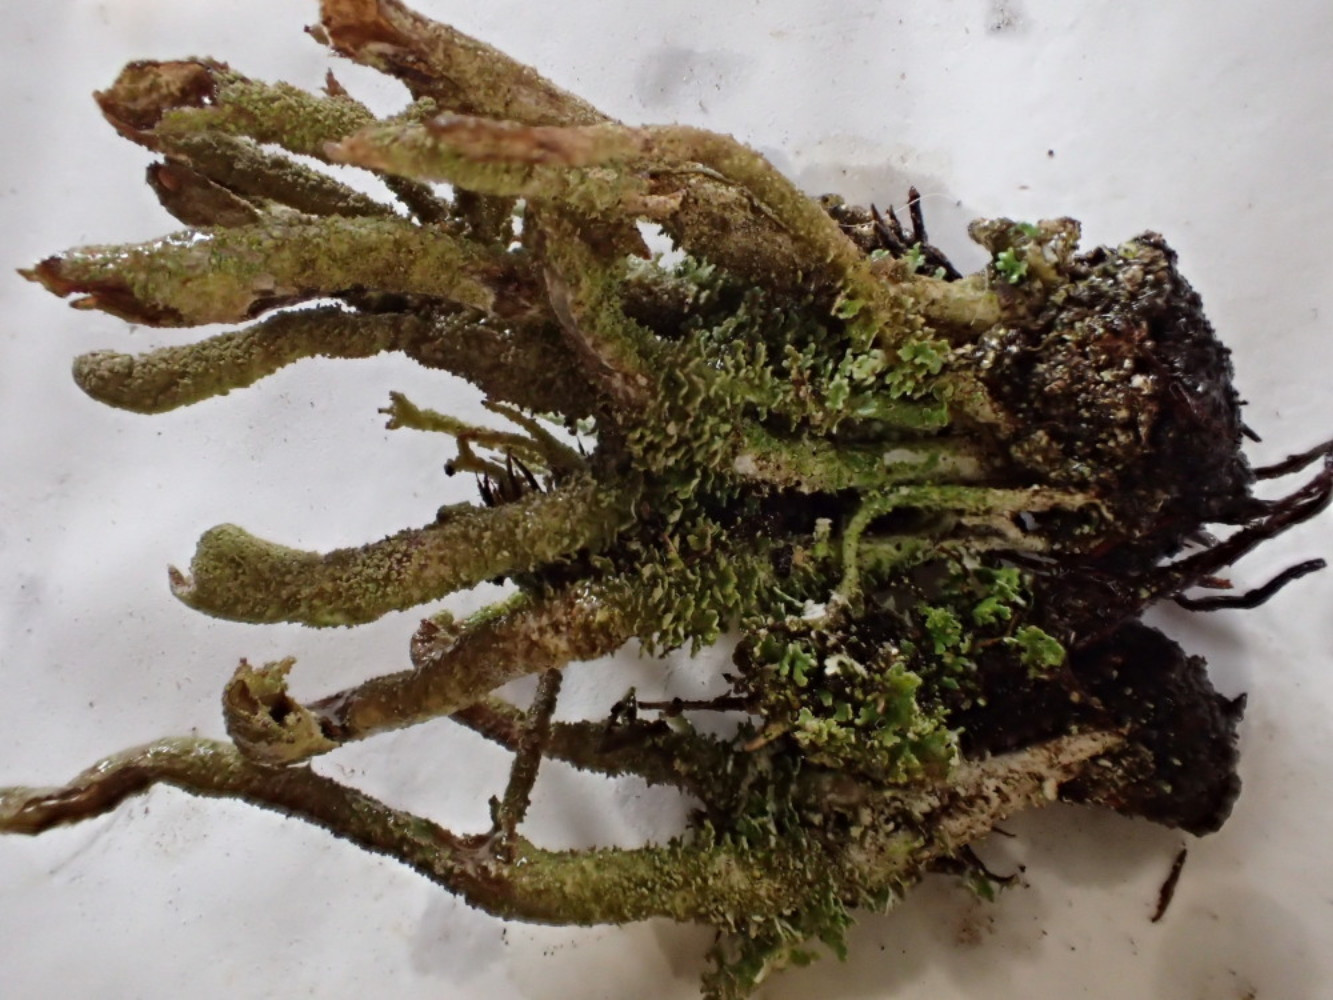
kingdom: Fungi
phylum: Ascomycota
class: Lecanoromycetes
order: Lecanorales
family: Cladoniaceae
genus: Cladonia
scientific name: Cladonia glauca
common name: grågrøn bægerlav
